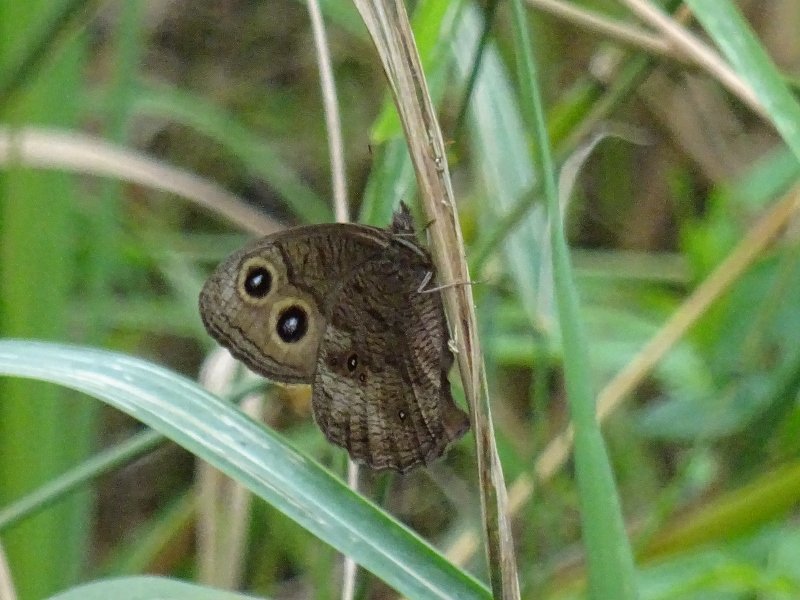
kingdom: Animalia
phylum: Arthropoda
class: Insecta
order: Lepidoptera
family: Nymphalidae
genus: Cercyonis
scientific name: Cercyonis pegala
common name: Common Wood-Nymph
